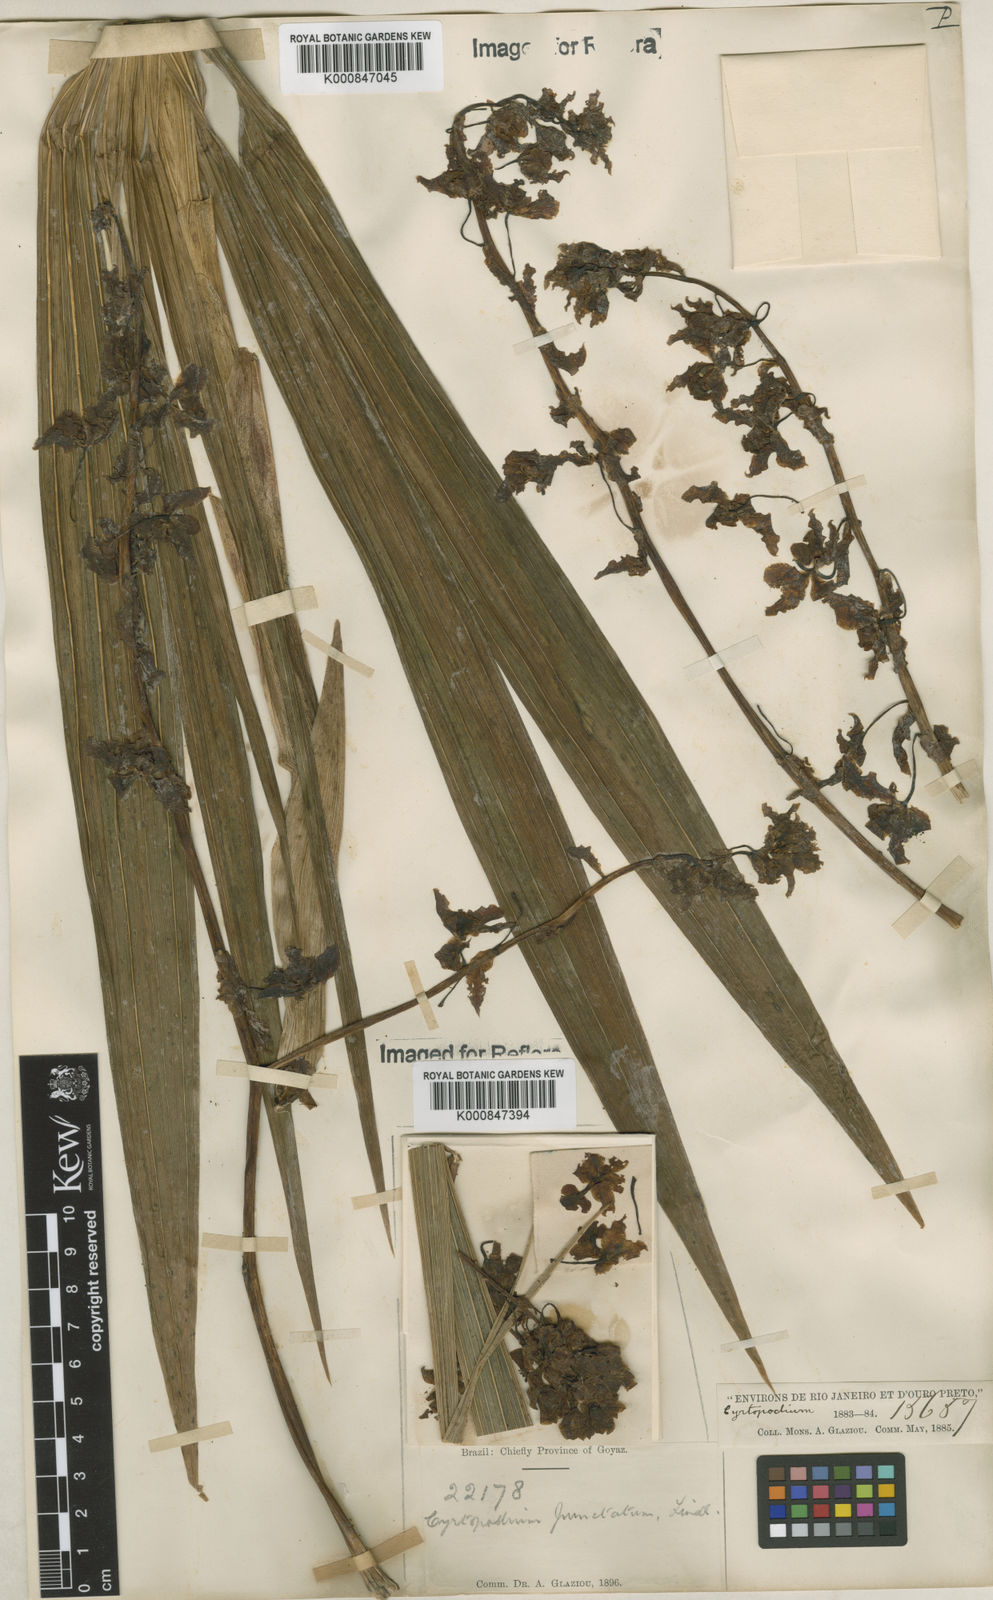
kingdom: Plantae
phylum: Tracheophyta
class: Liliopsida
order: Asparagales
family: Orchidaceae
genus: Cyrtopodium
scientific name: Cyrtopodium punctatum
